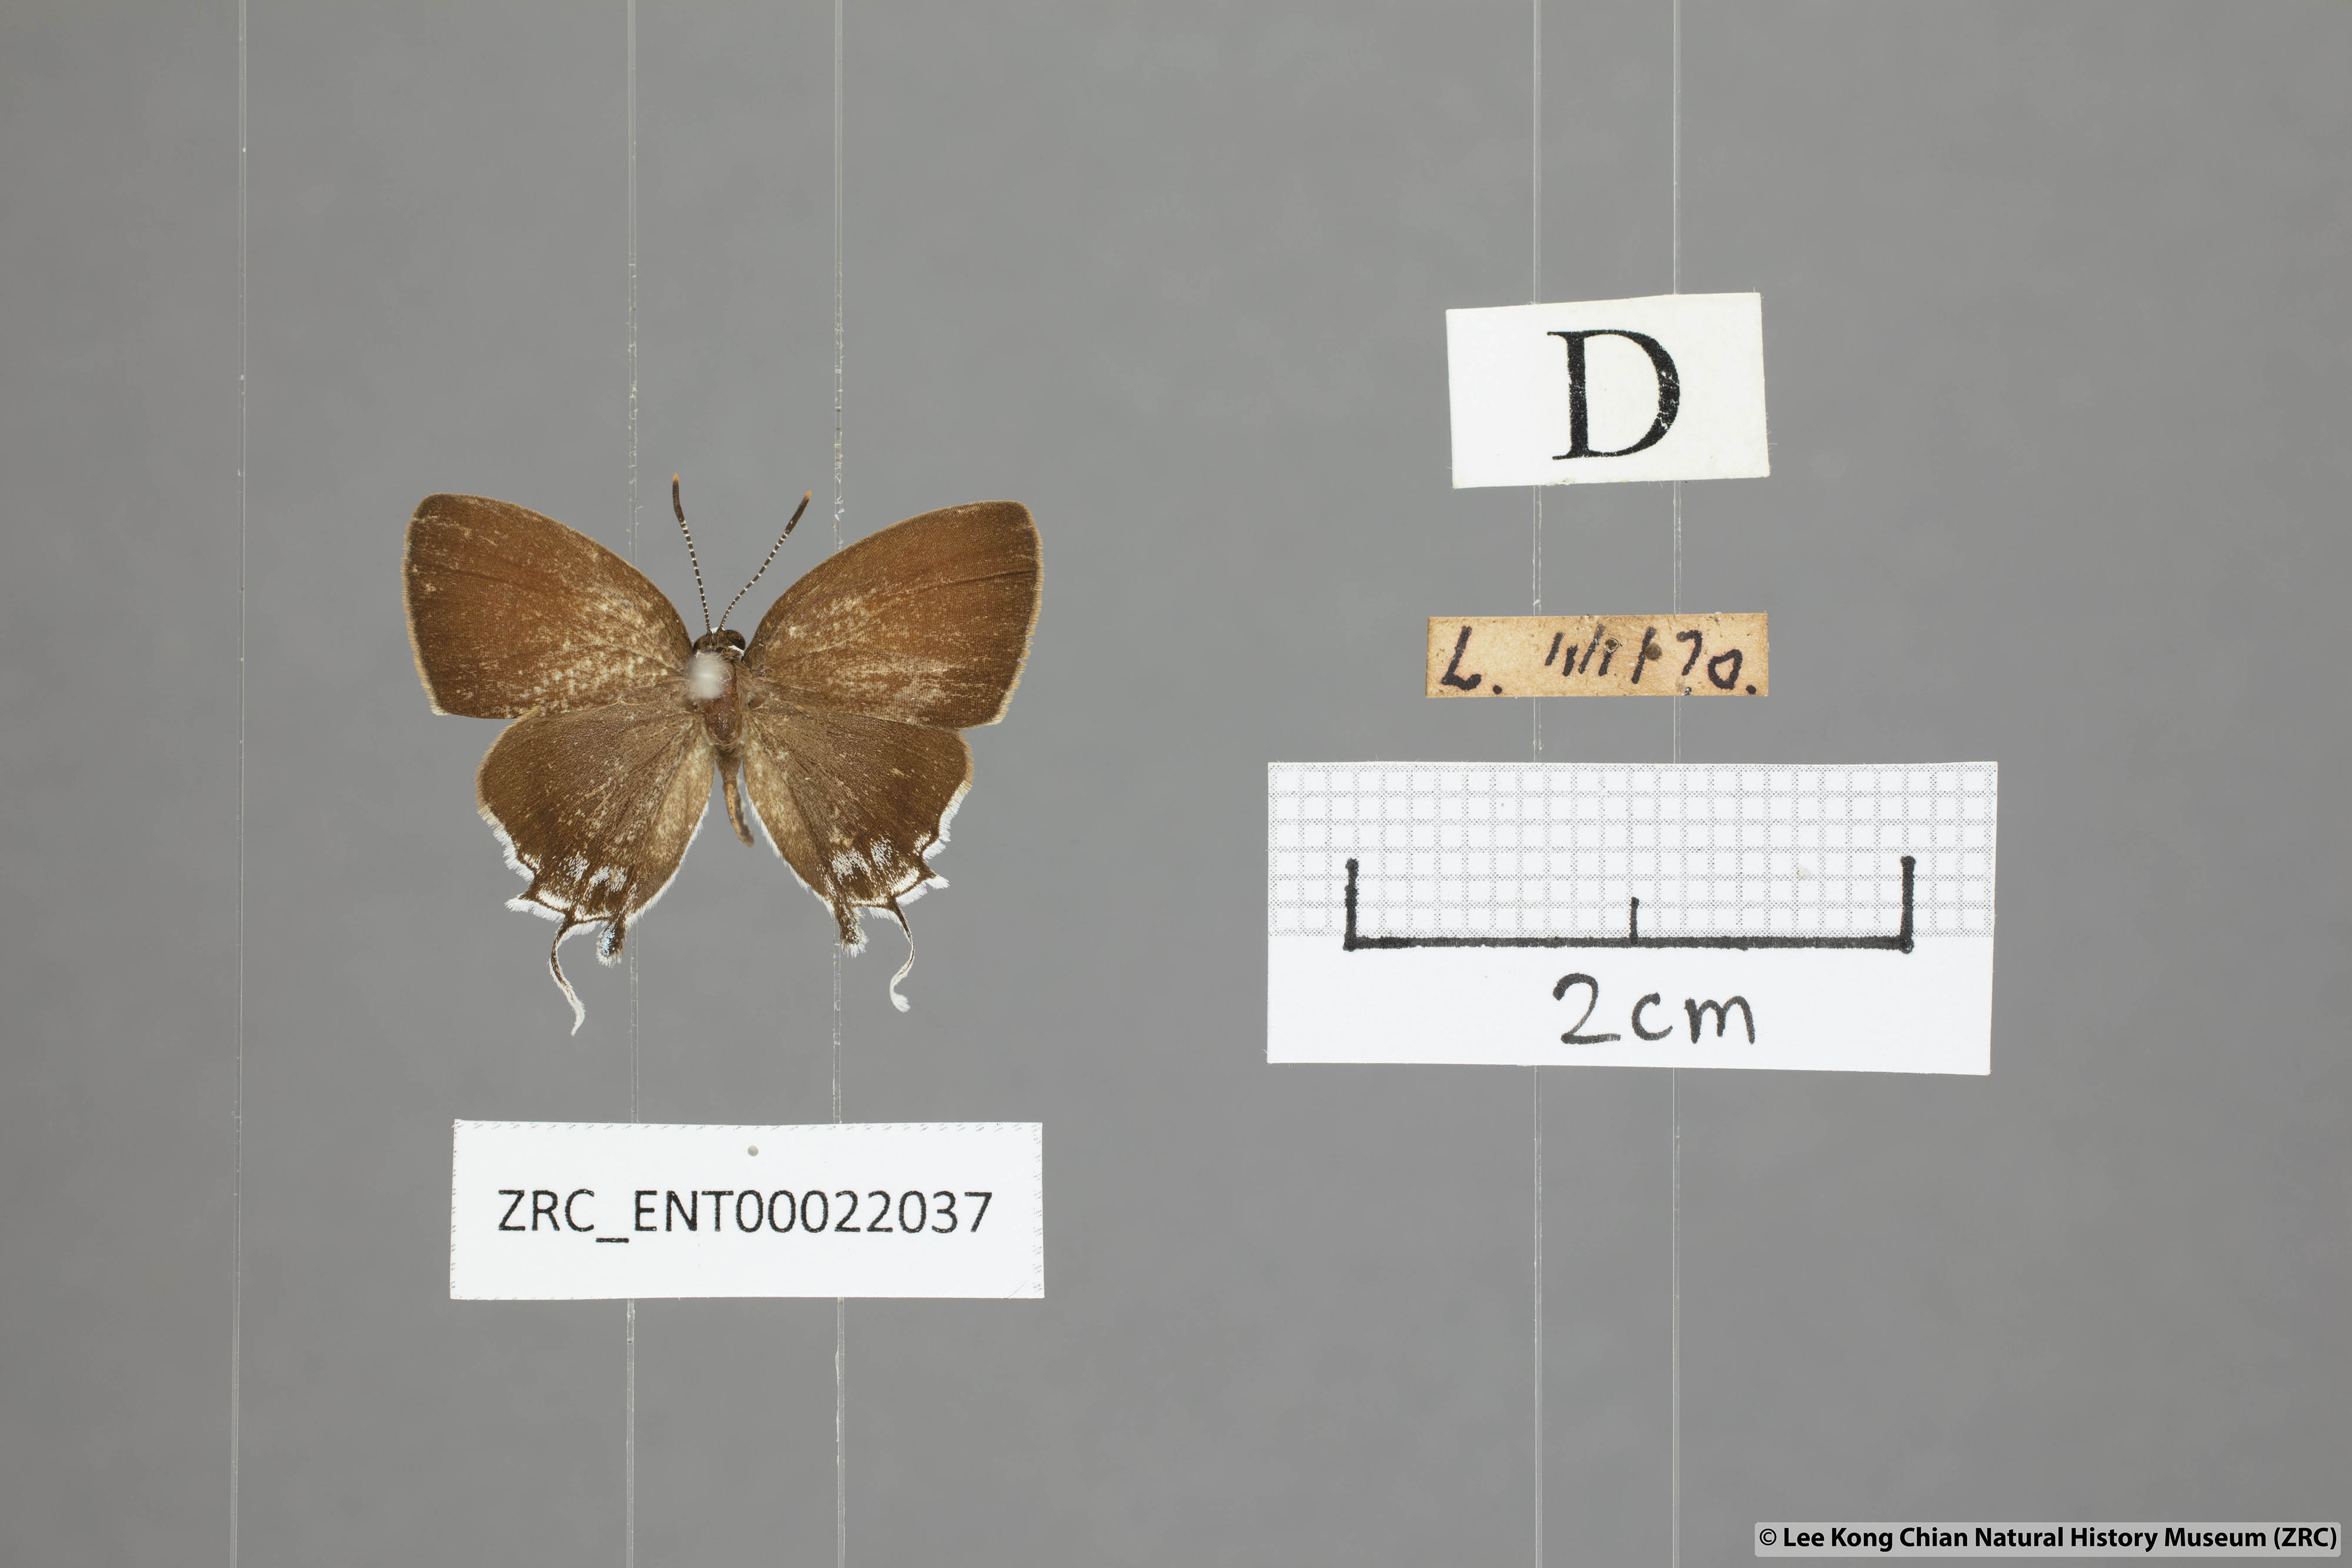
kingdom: Animalia
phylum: Arthropoda
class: Insecta
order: Lepidoptera
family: Lycaenidae
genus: Sithon
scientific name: Sithon nedymond
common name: Plush
